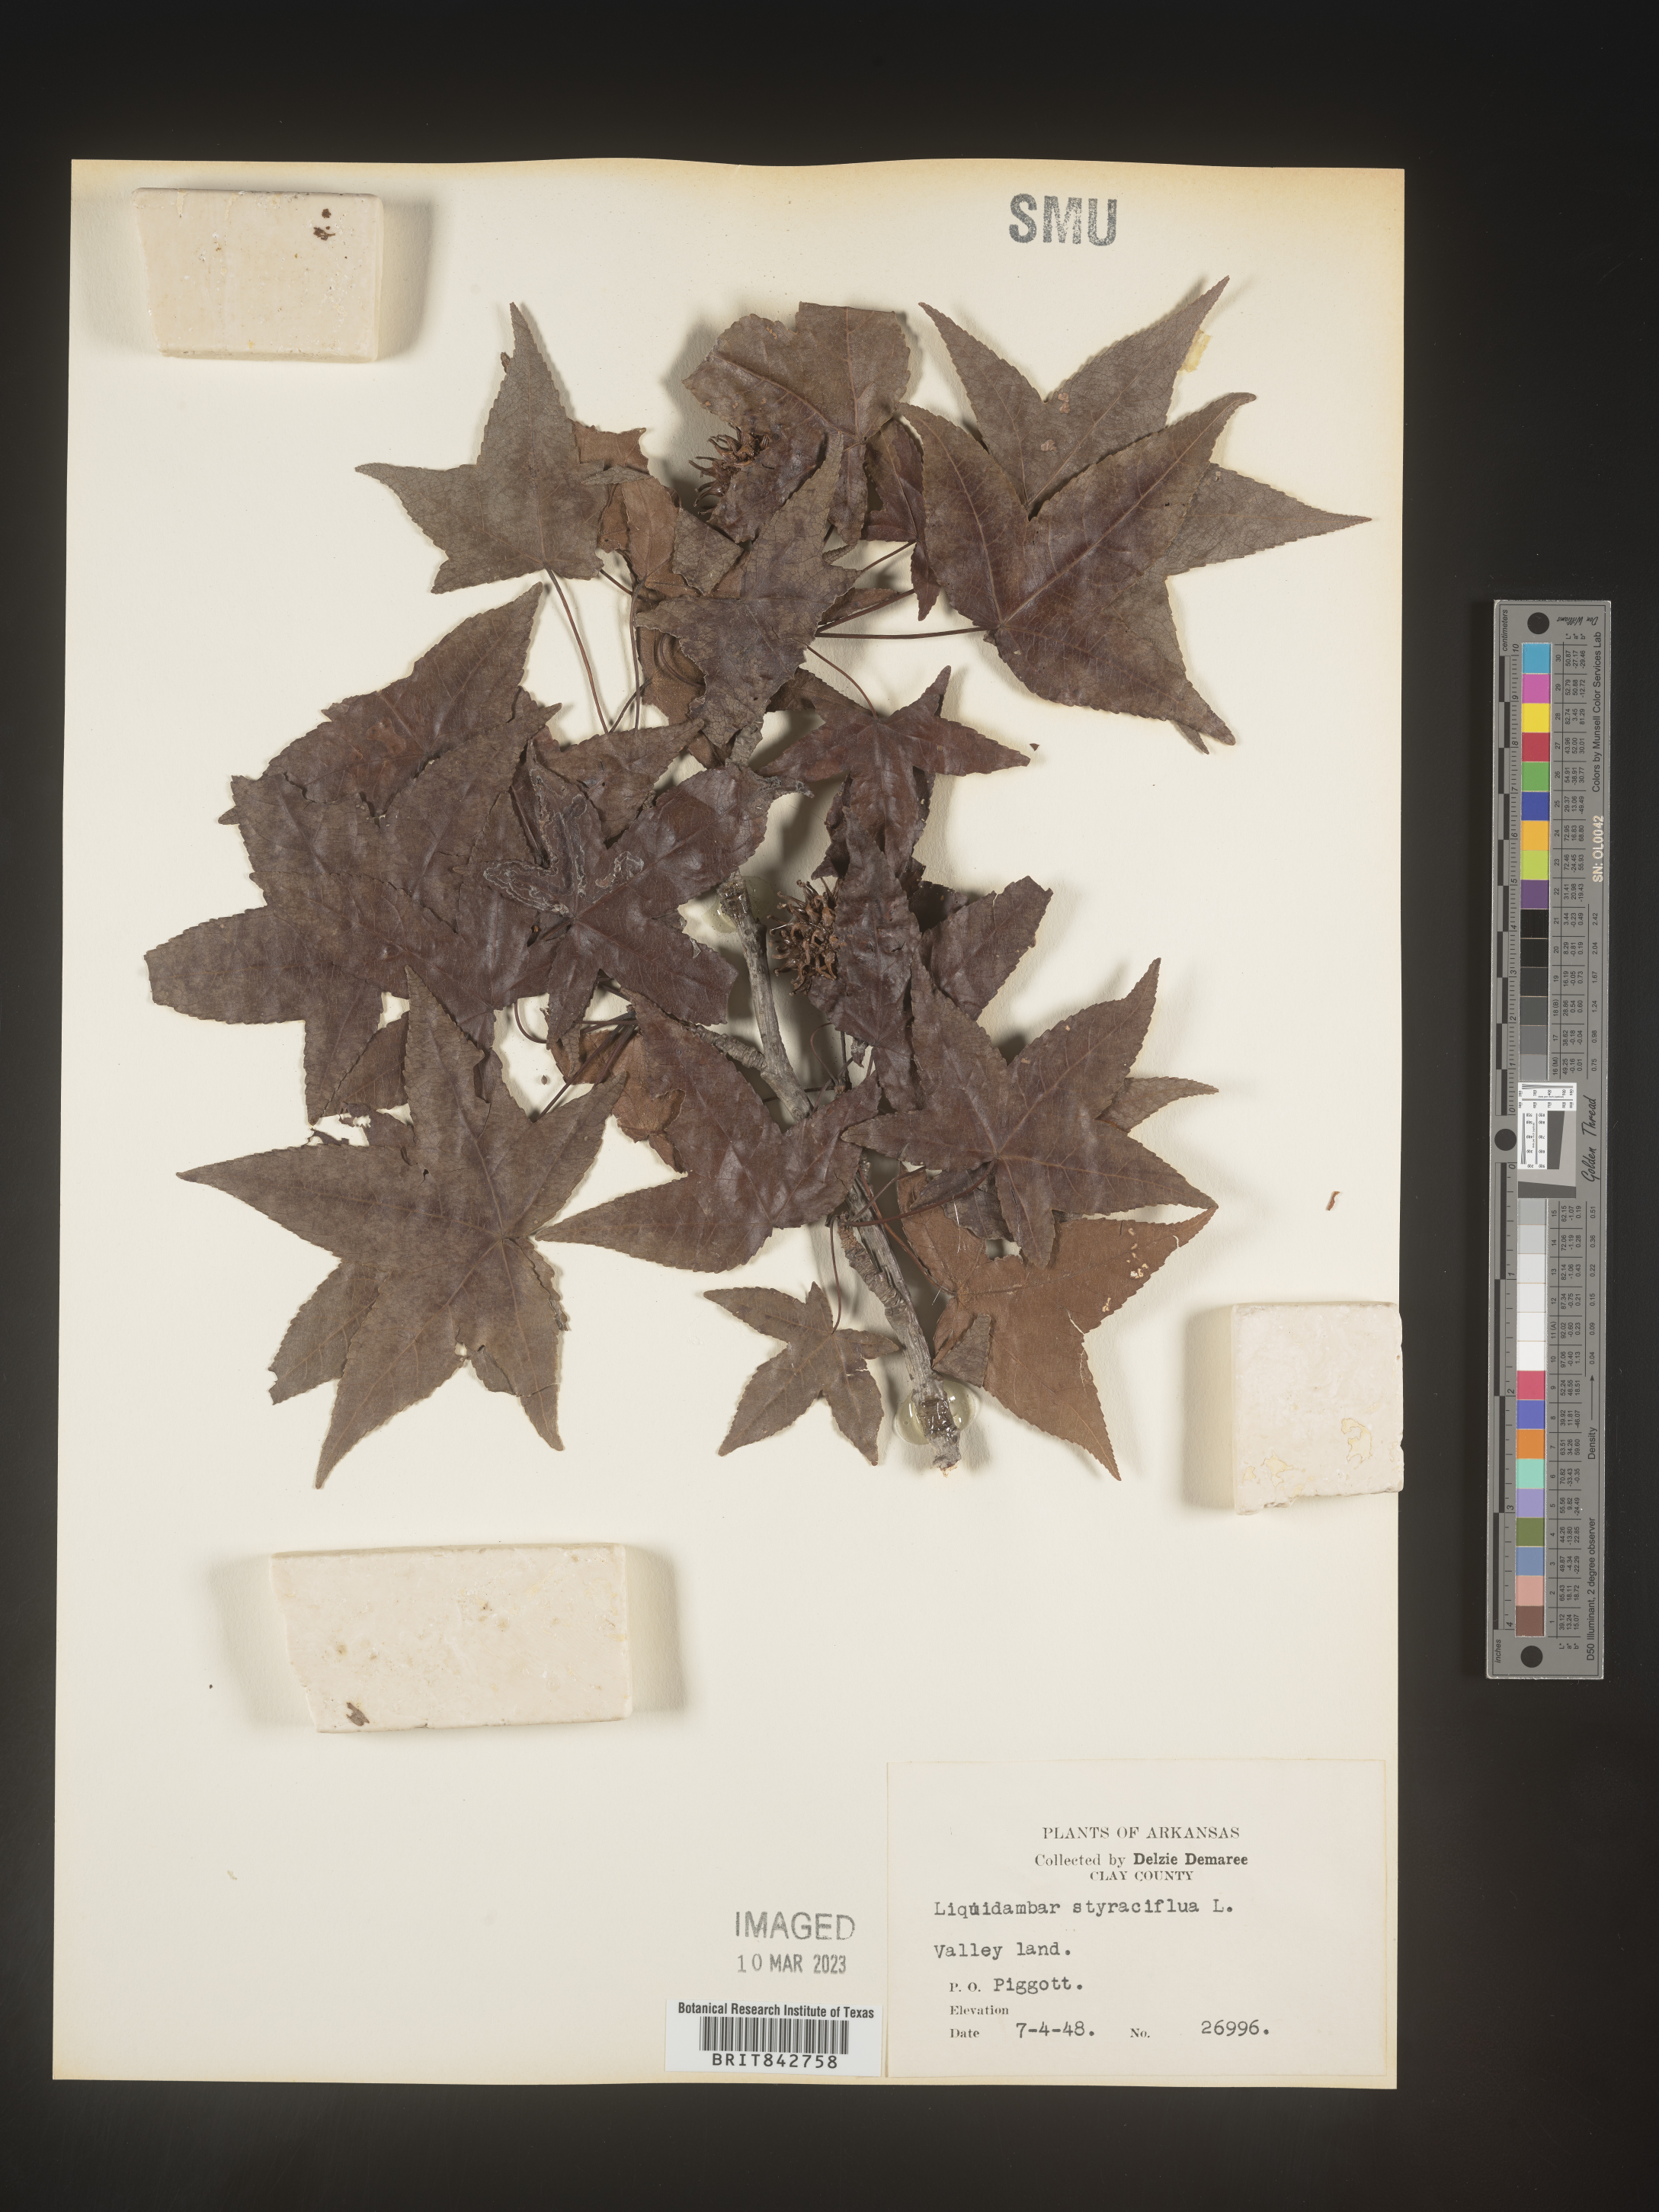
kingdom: Plantae
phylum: Tracheophyta
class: Magnoliopsida
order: Saxifragales
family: Altingiaceae
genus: Liquidambar
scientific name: Liquidambar styraciflua
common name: Sweet gum
